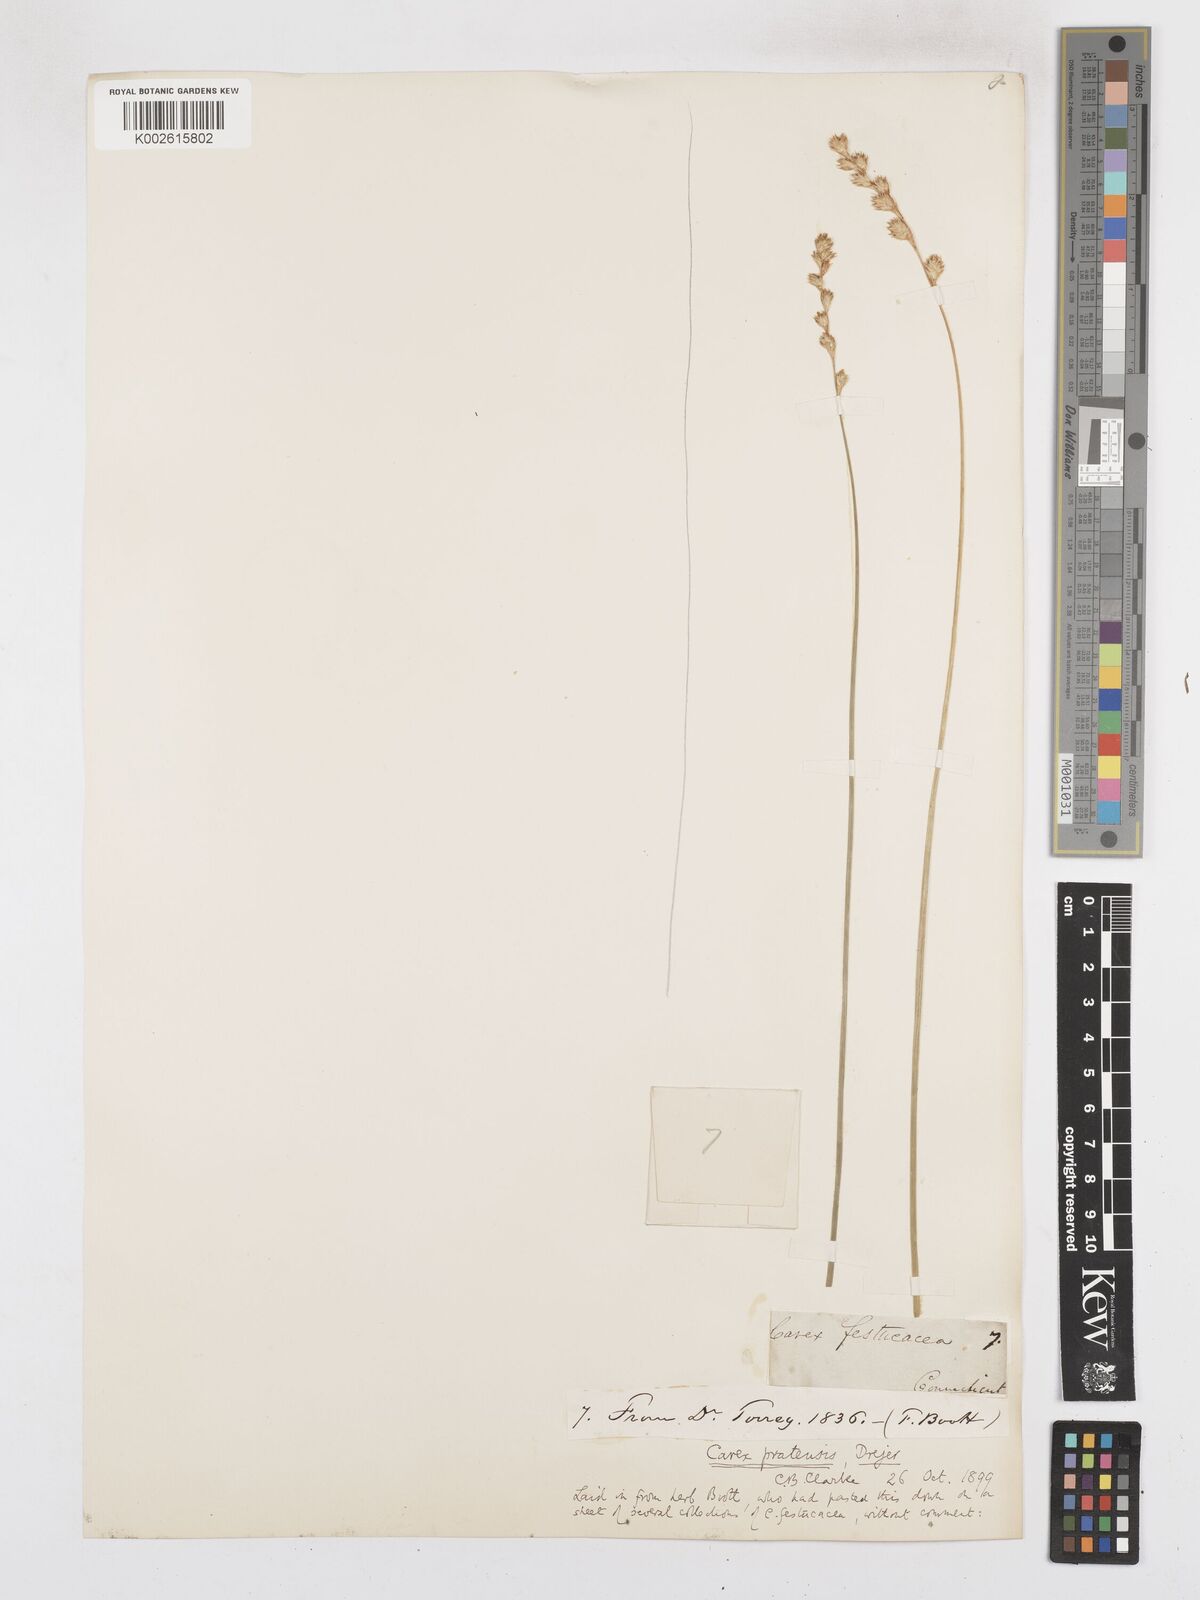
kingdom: Plantae
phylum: Tracheophyta
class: Liliopsida
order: Poales
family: Cyperaceae
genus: Carex
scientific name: Carex praticola
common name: Large-fruited oval sedge
